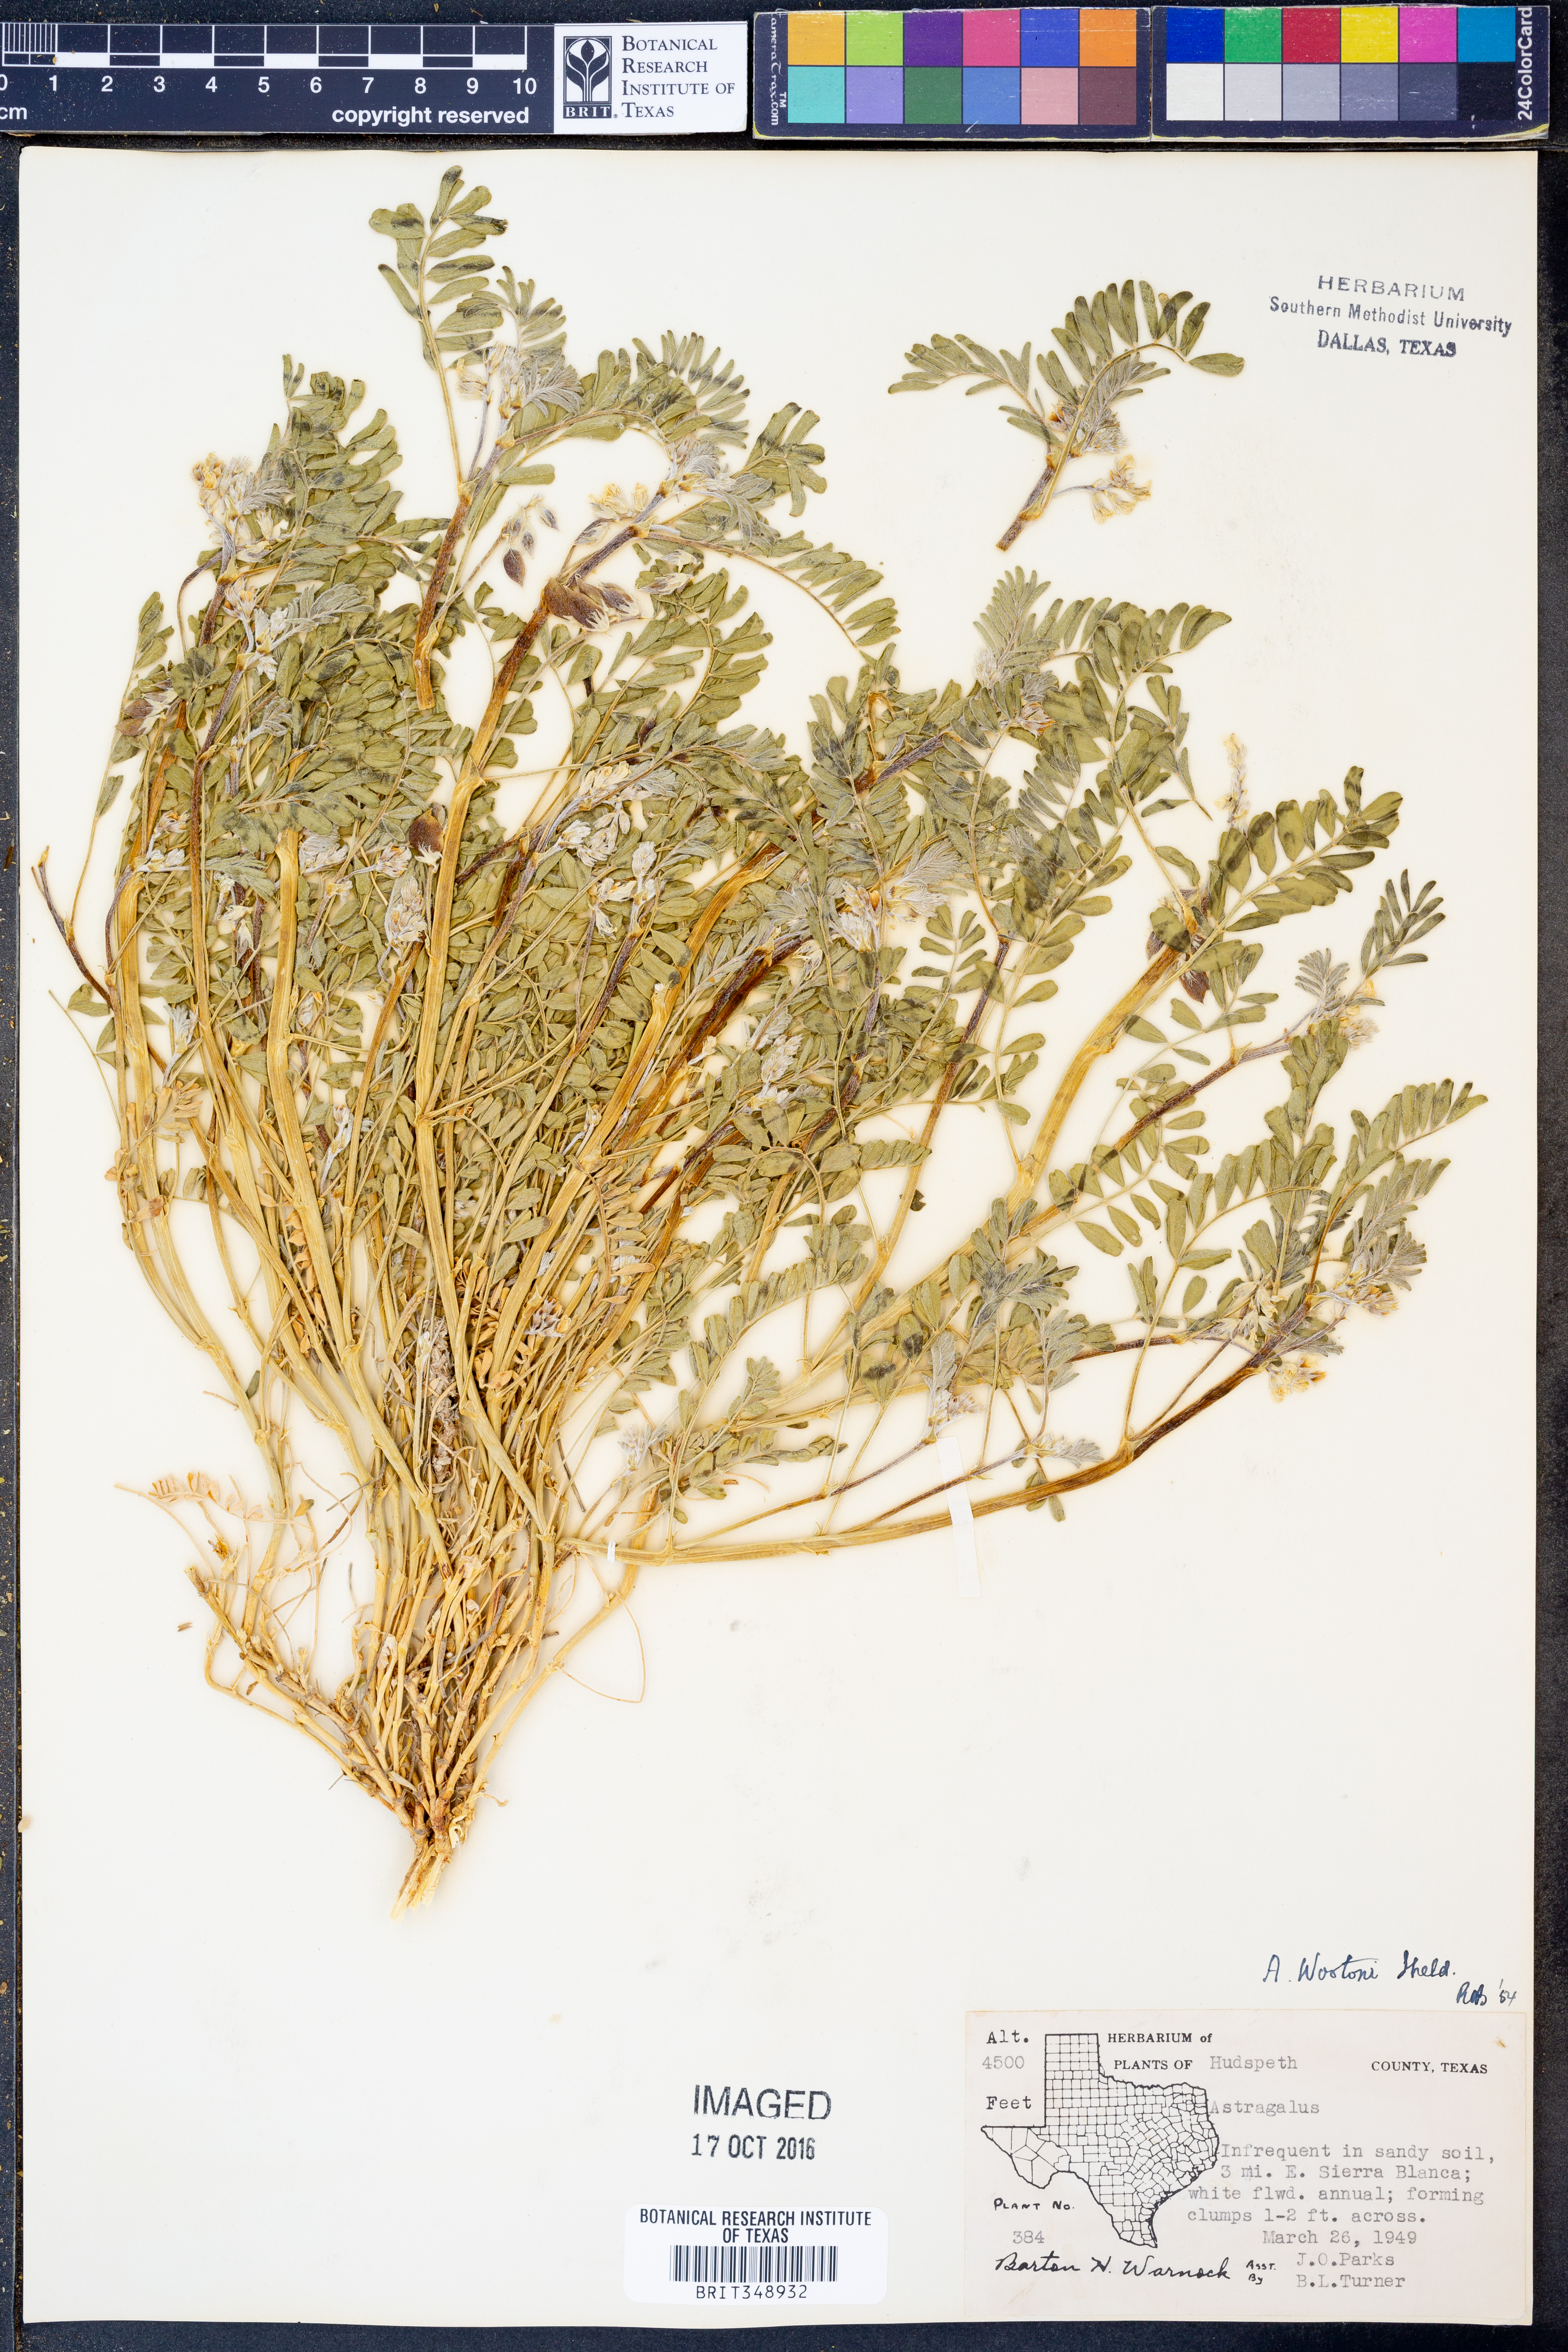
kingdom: Plantae
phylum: Tracheophyta
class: Magnoliopsida
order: Fabales
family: Fabaceae
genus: Astragalus
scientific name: Astragalus wootonii
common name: Wooton's milk-vetch
